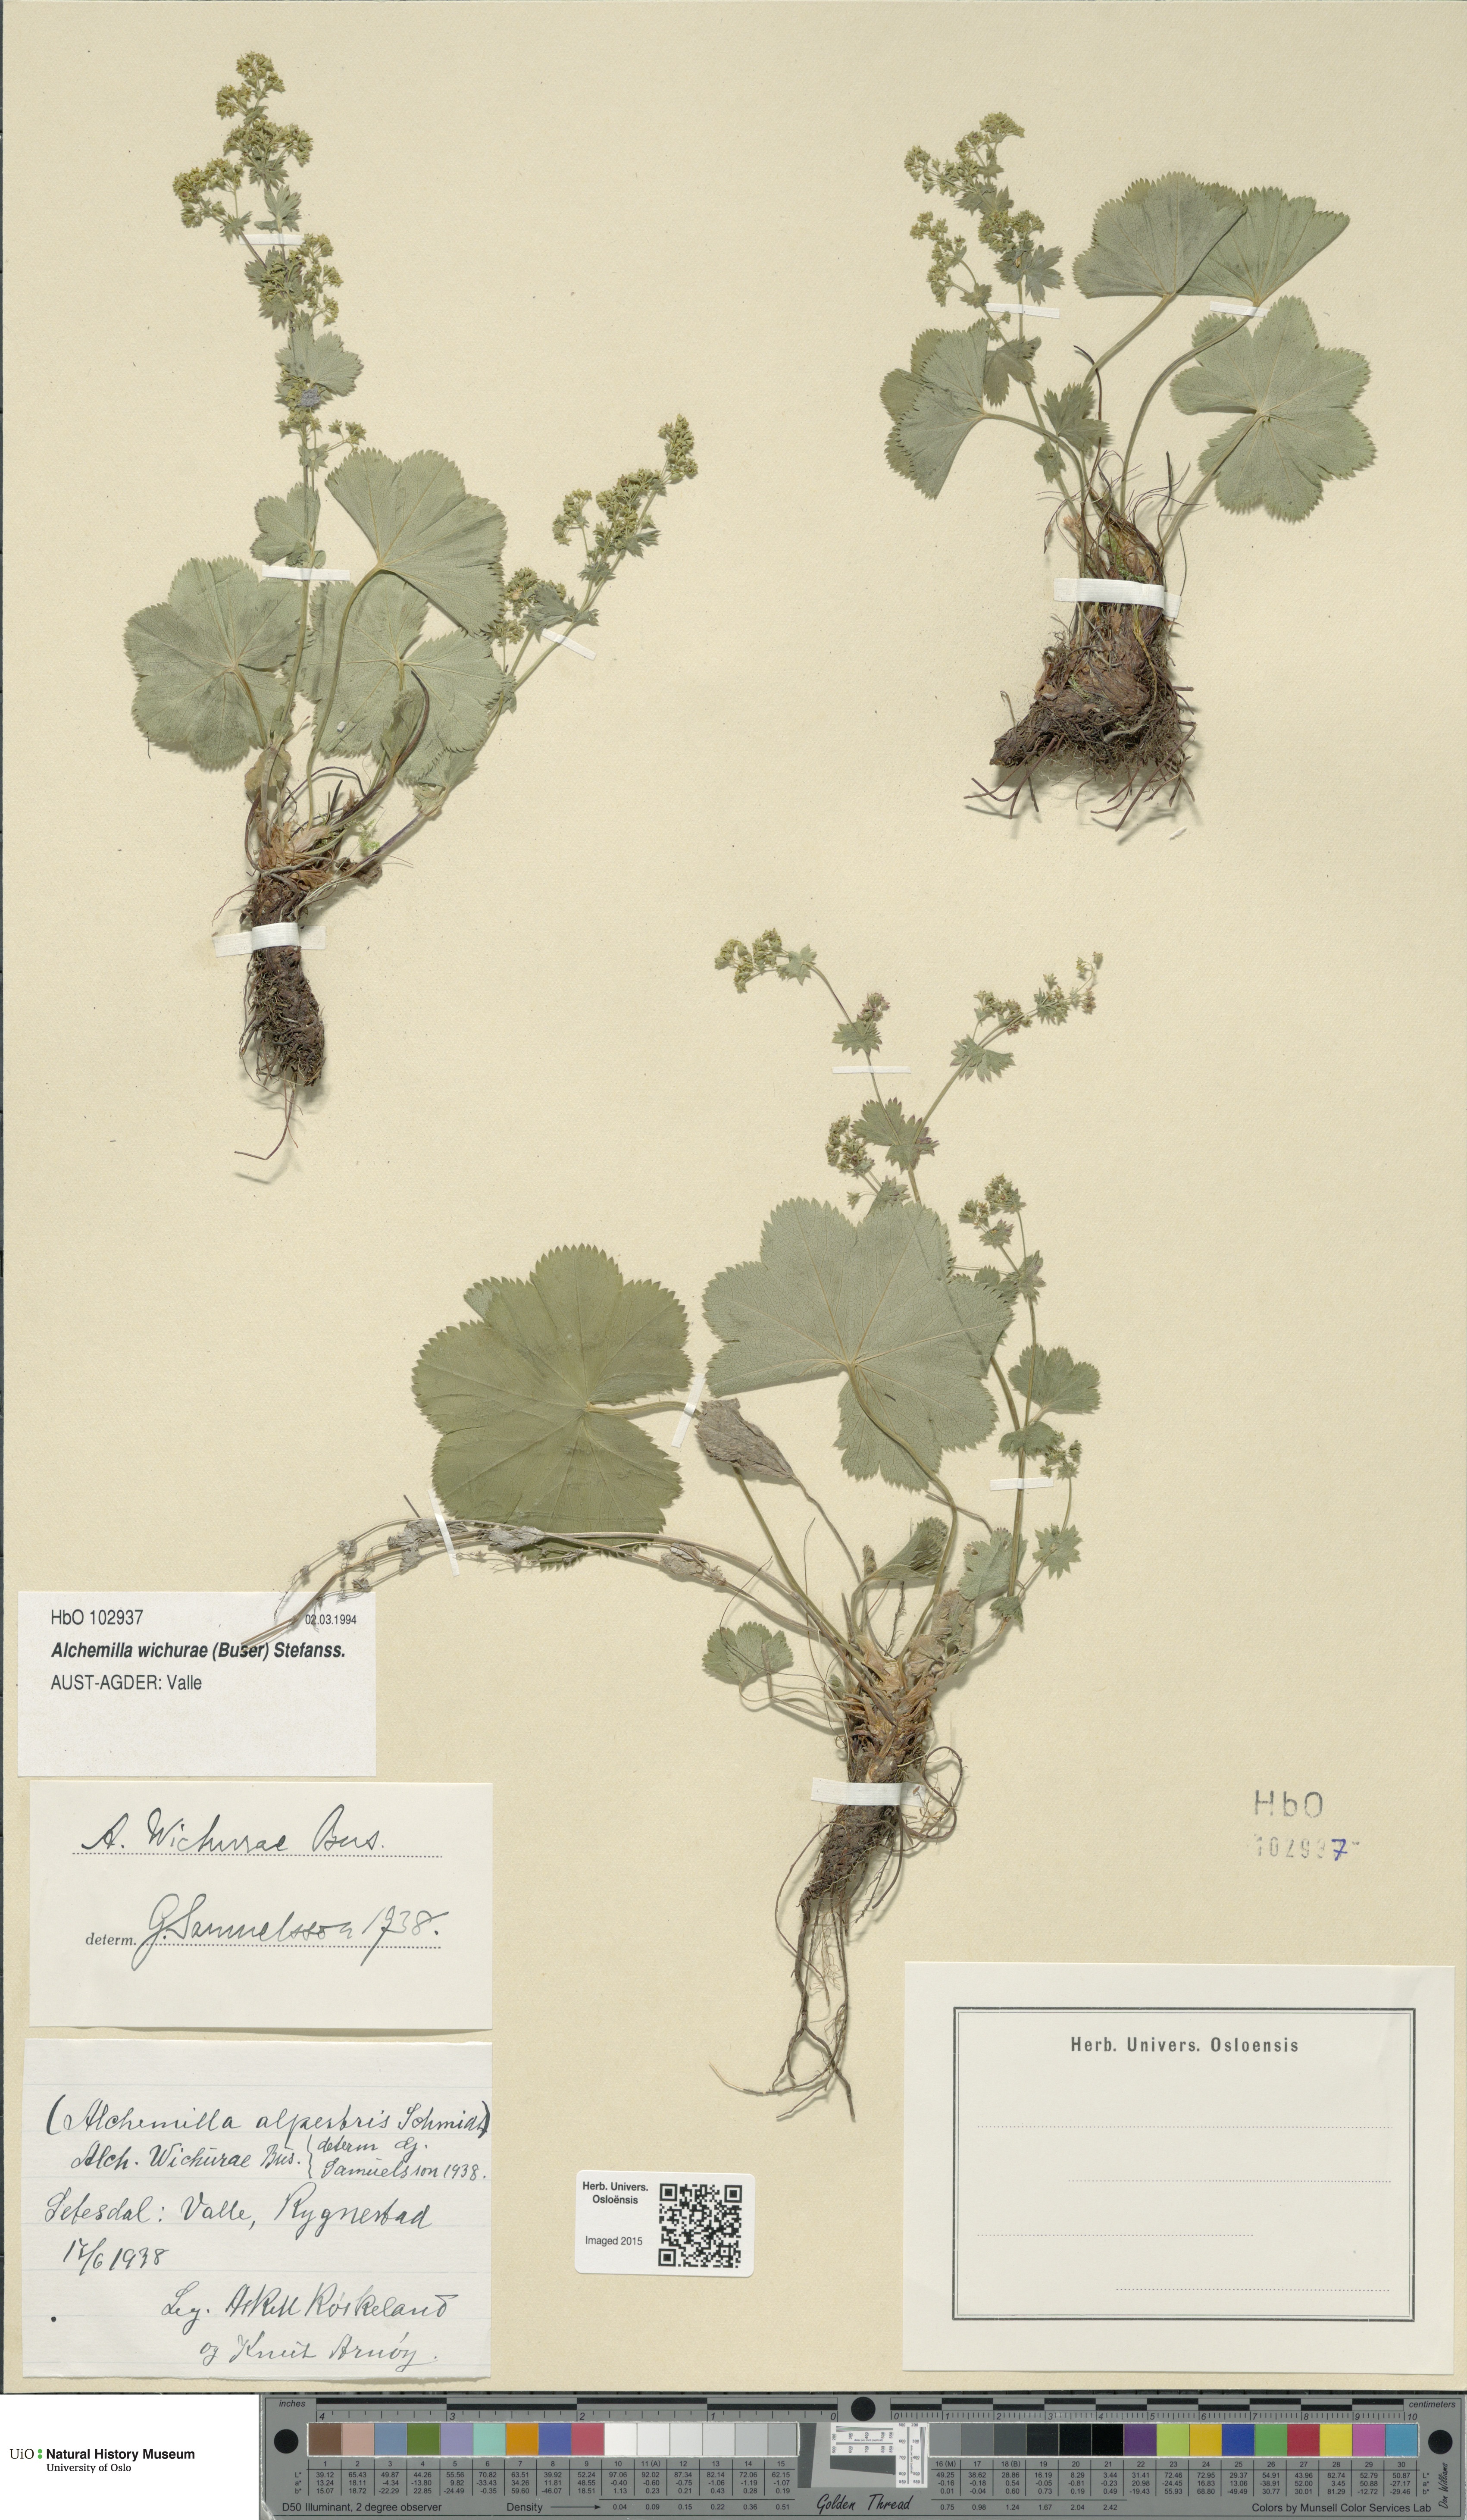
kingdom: Plantae
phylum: Tracheophyta
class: Magnoliopsida
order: Rosales
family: Rosaceae
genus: Alchemilla
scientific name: Alchemilla wichurae
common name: Rock lady's mantle
